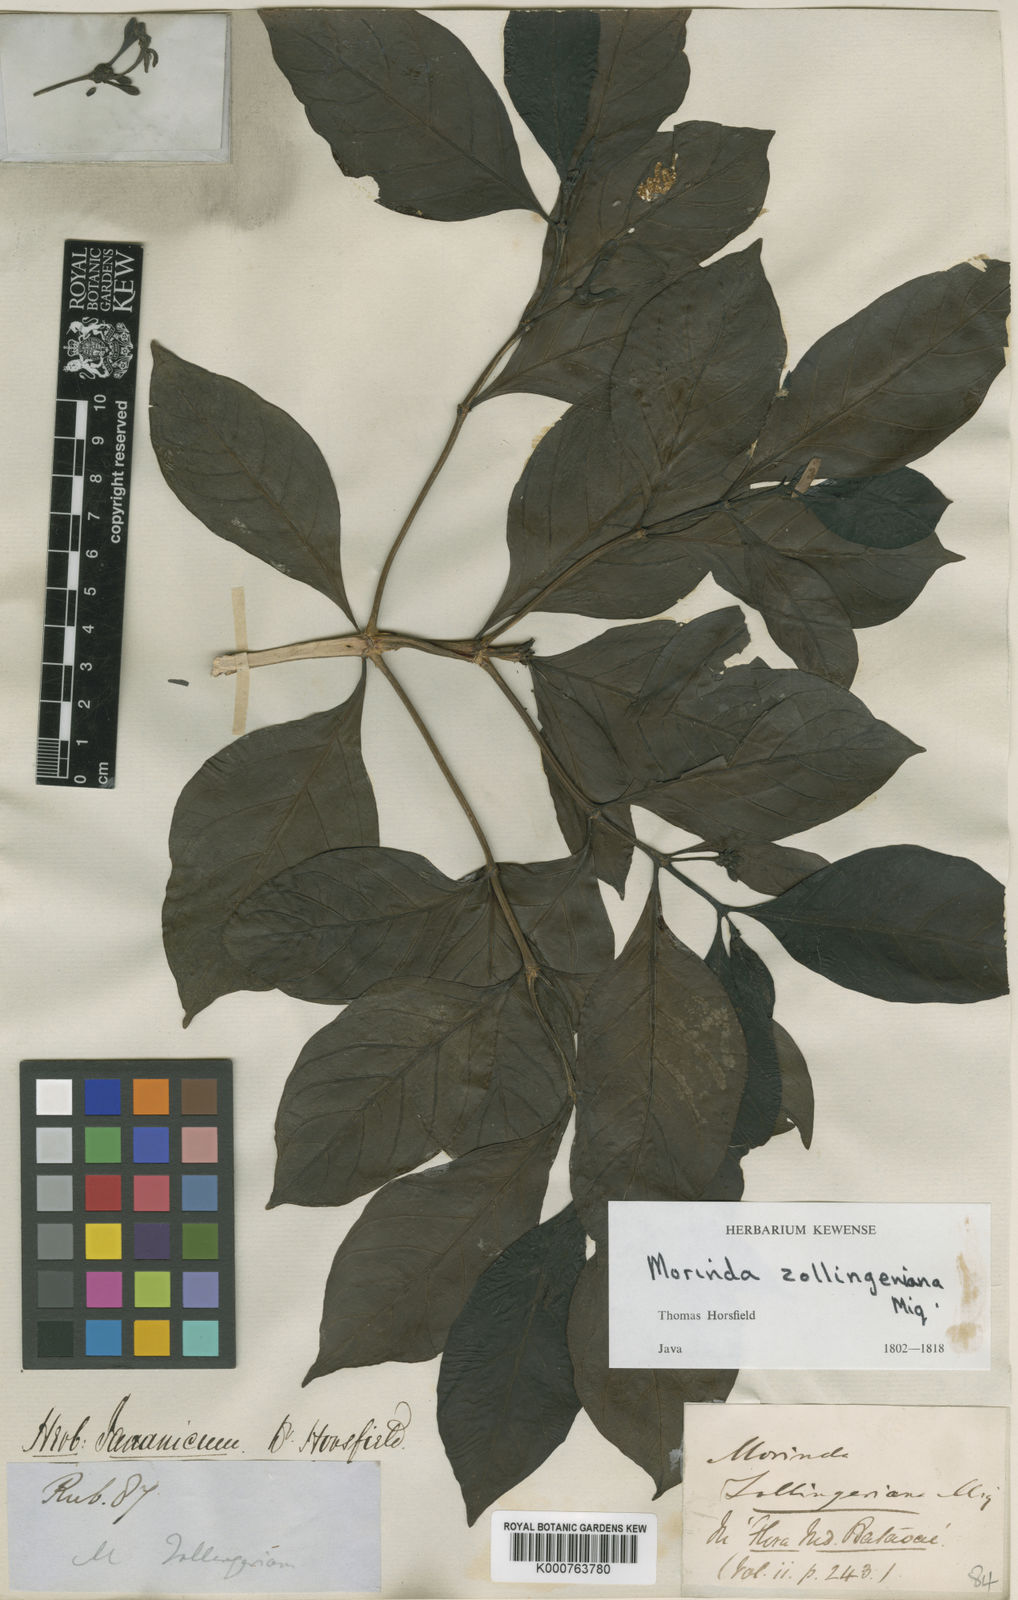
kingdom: Plantae
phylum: Tracheophyta
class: Magnoliopsida
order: Gentianales
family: Rubiaceae
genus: Morinda
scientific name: Morinda citrifolia
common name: Indian-mulberry
